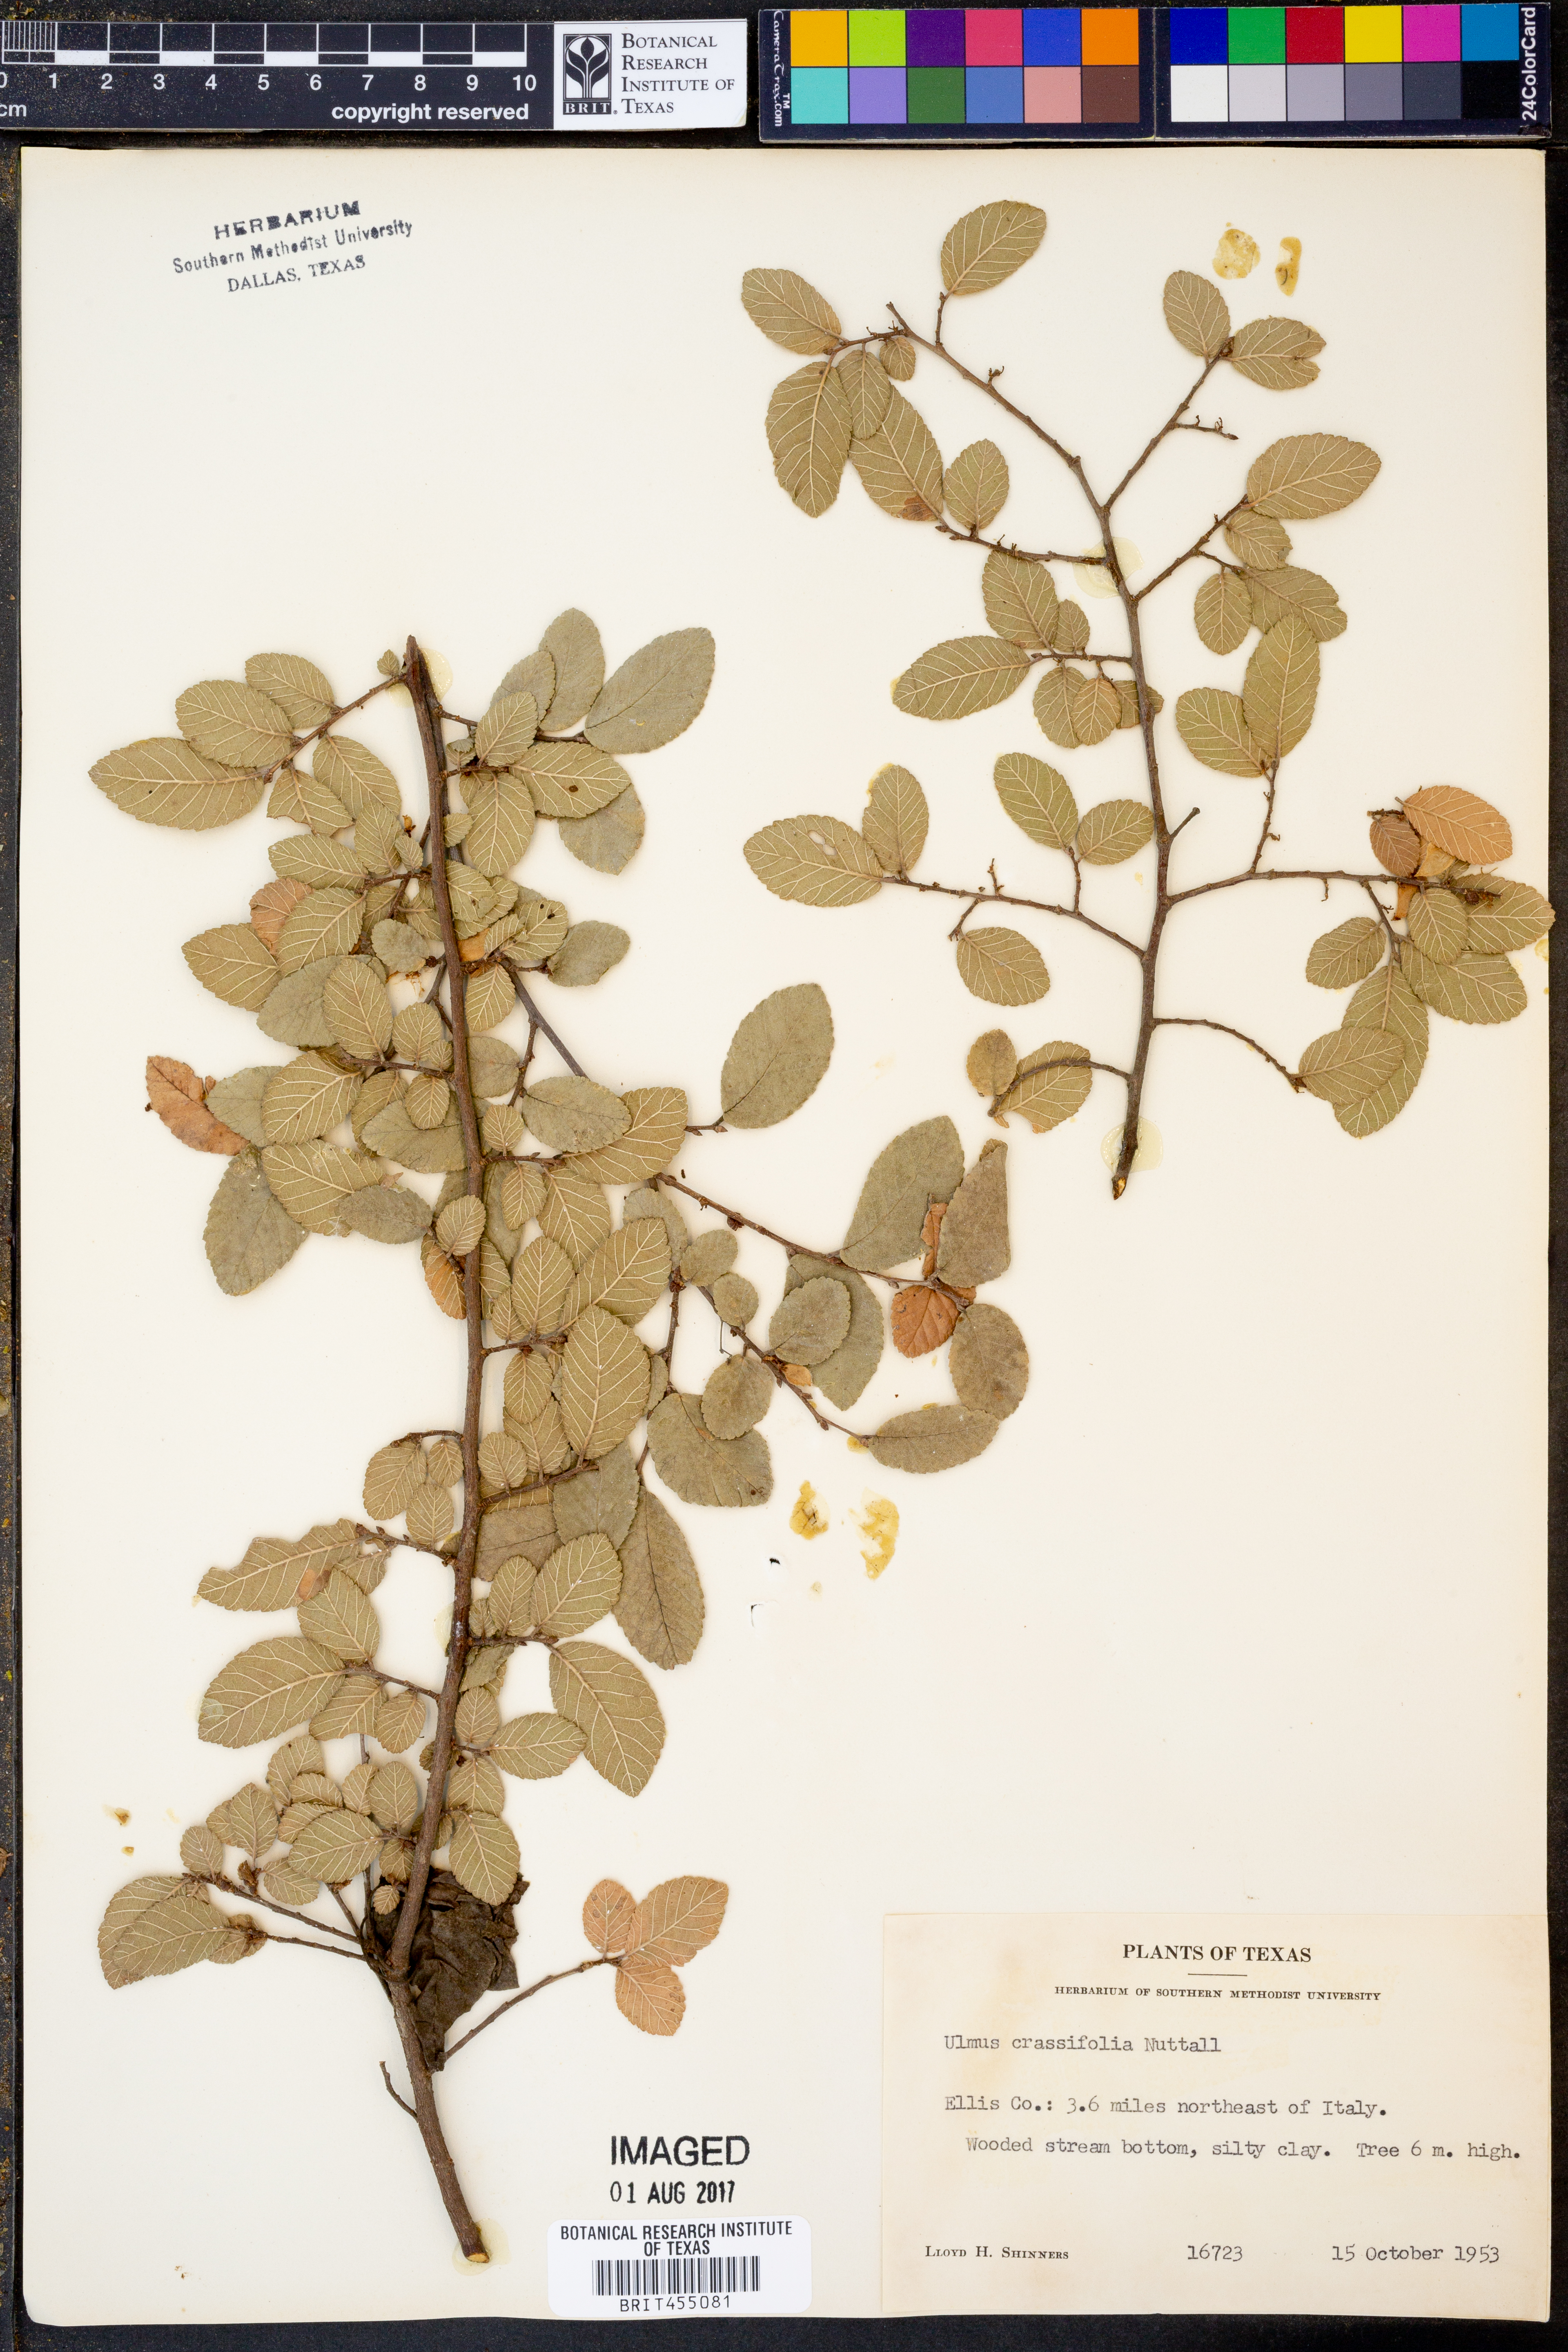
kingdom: Plantae
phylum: Tracheophyta
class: Magnoliopsida
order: Rosales
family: Ulmaceae
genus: Ulmus
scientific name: Ulmus crassifolia
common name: Basket elm
